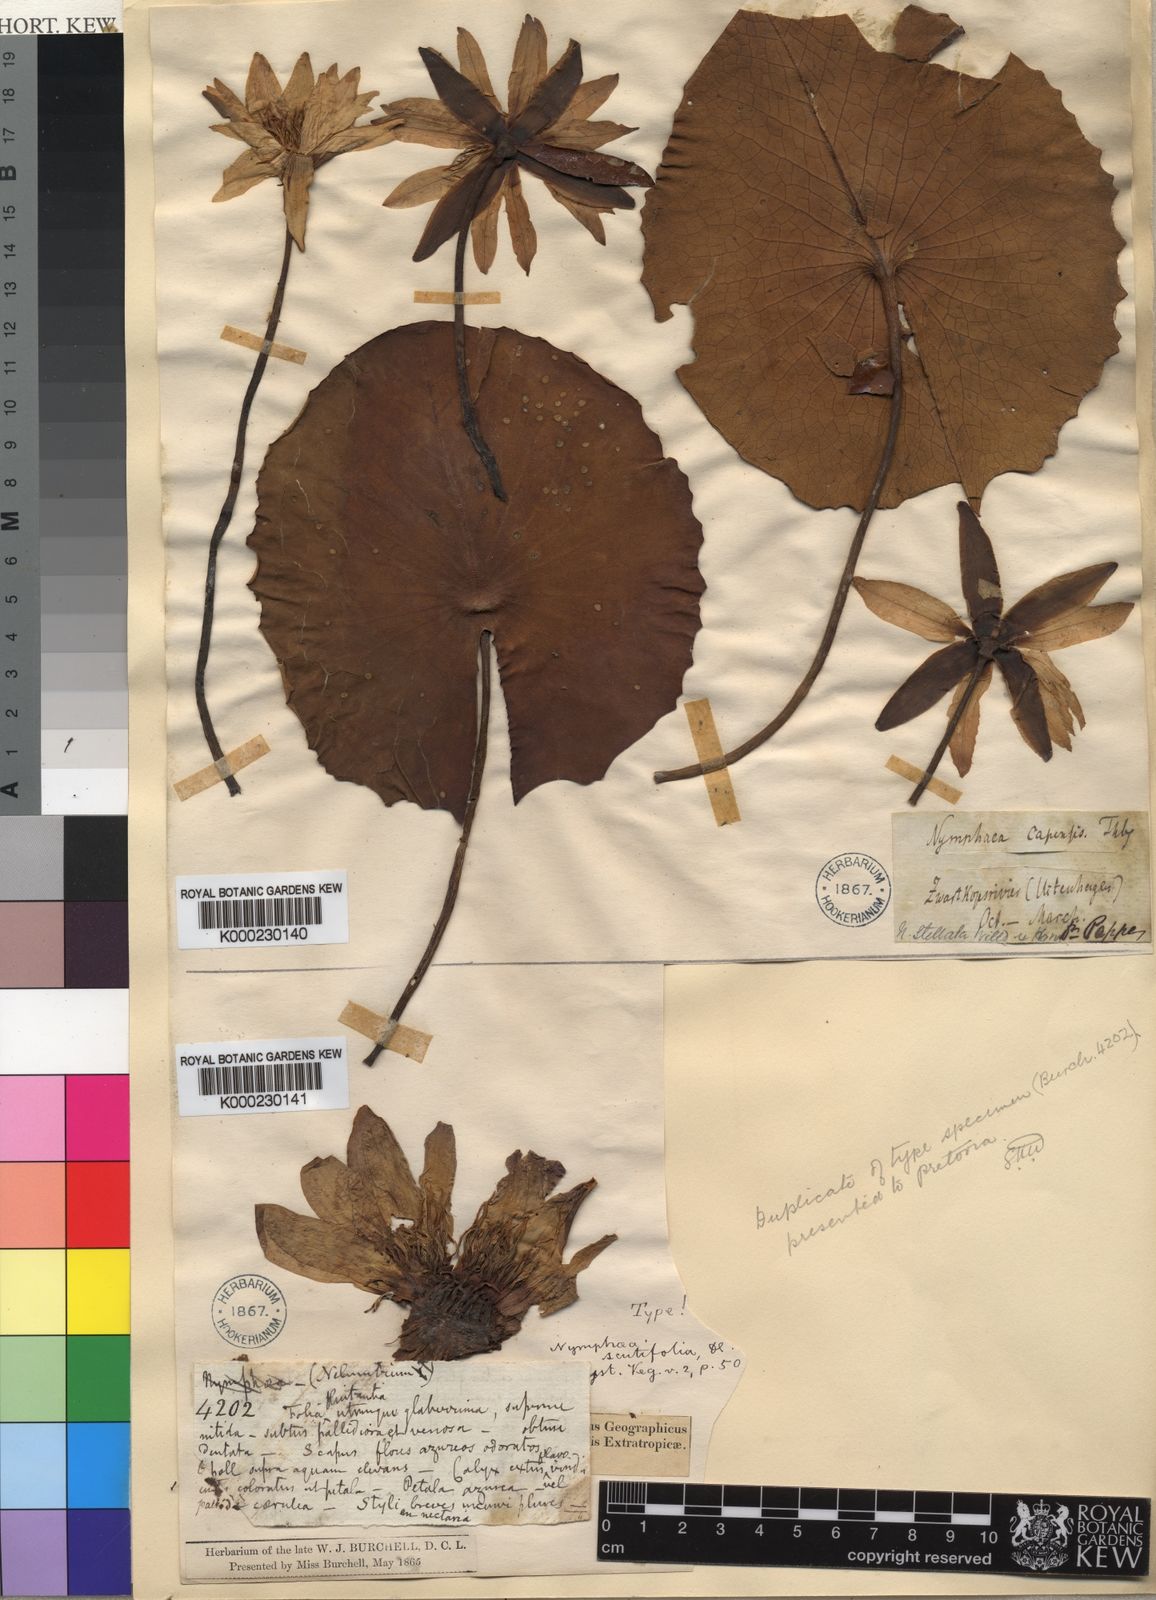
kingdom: Plantae
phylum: Tracheophyta
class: Magnoliopsida
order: Nymphaeales
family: Nymphaeaceae
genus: Nymphaea
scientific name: Nymphaea nouchali
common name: Blue lotus
